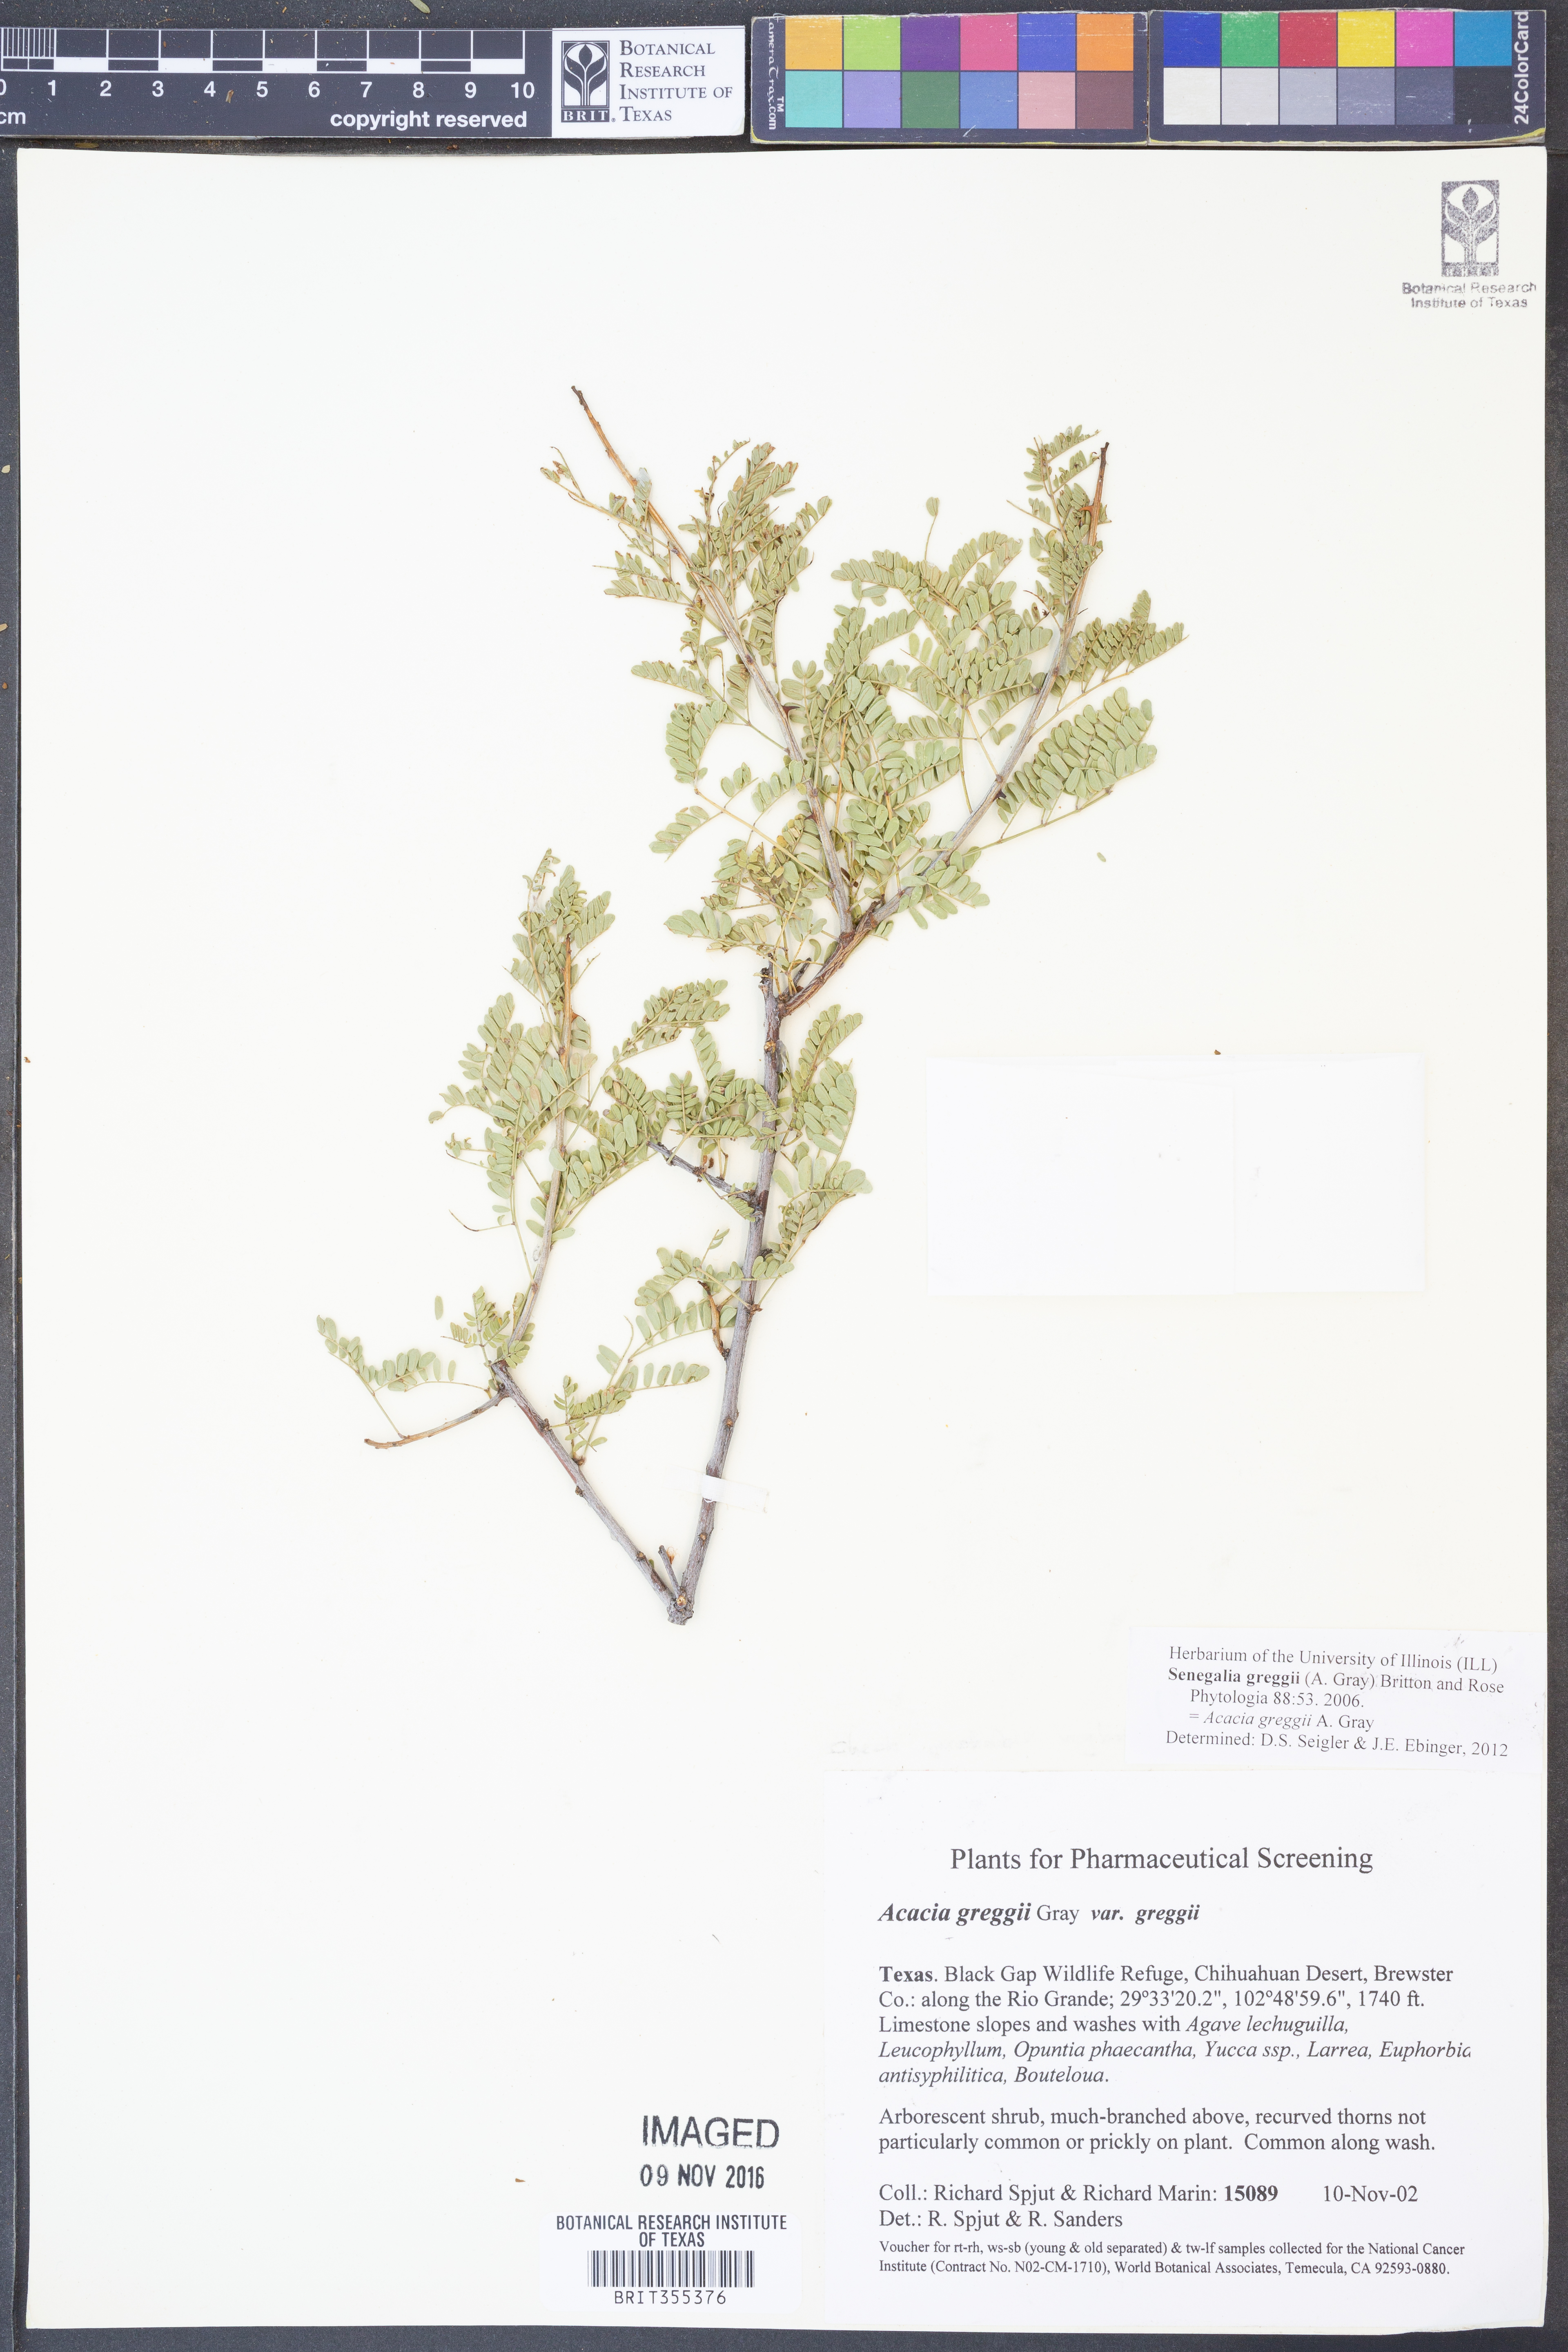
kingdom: Plantae
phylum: Tracheophyta
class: Magnoliopsida
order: Fabales
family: Fabaceae
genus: Senegalia
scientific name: Senegalia greggii
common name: Texas-mimosa
